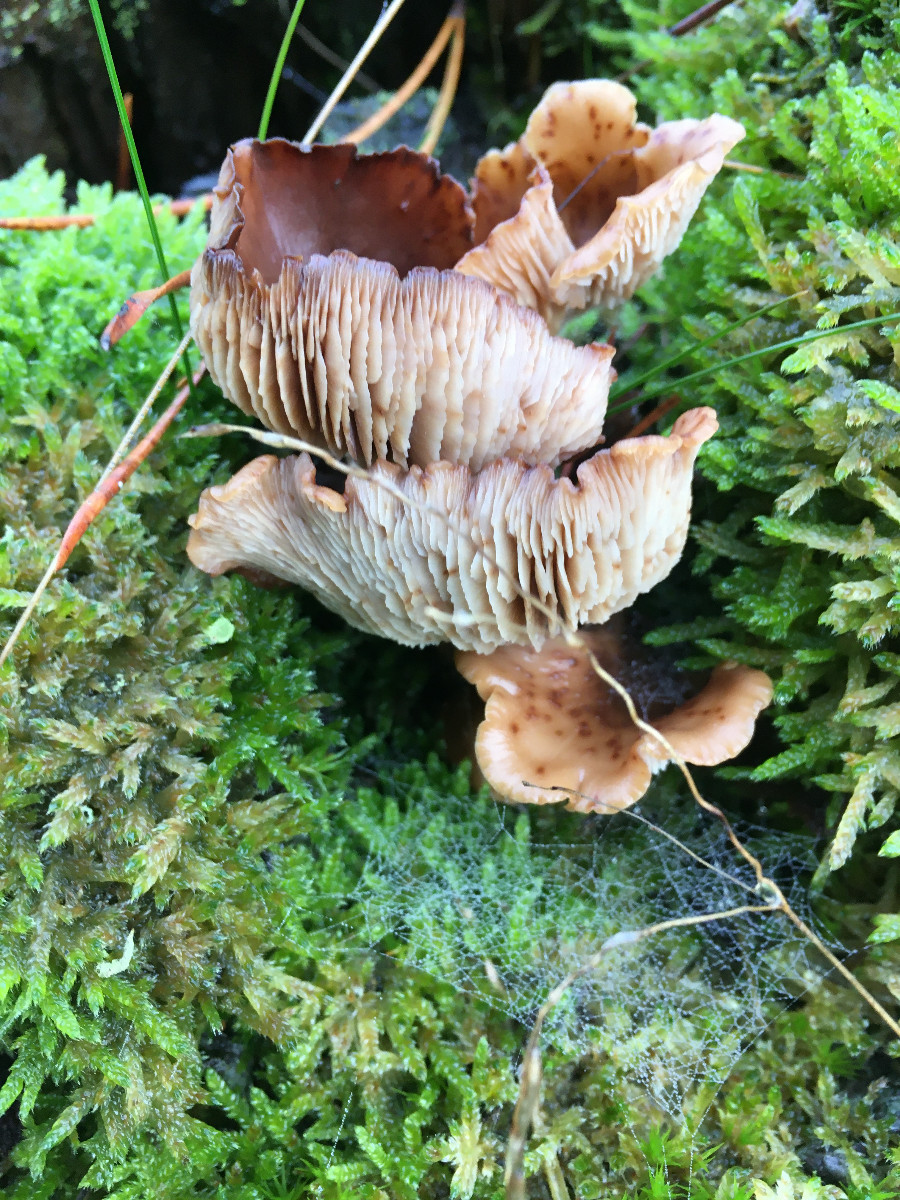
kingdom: Fungi
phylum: Basidiomycota
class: Agaricomycetes
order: Russulales
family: Auriscalpiaceae
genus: Lentinellus
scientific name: Lentinellus cochleatus
